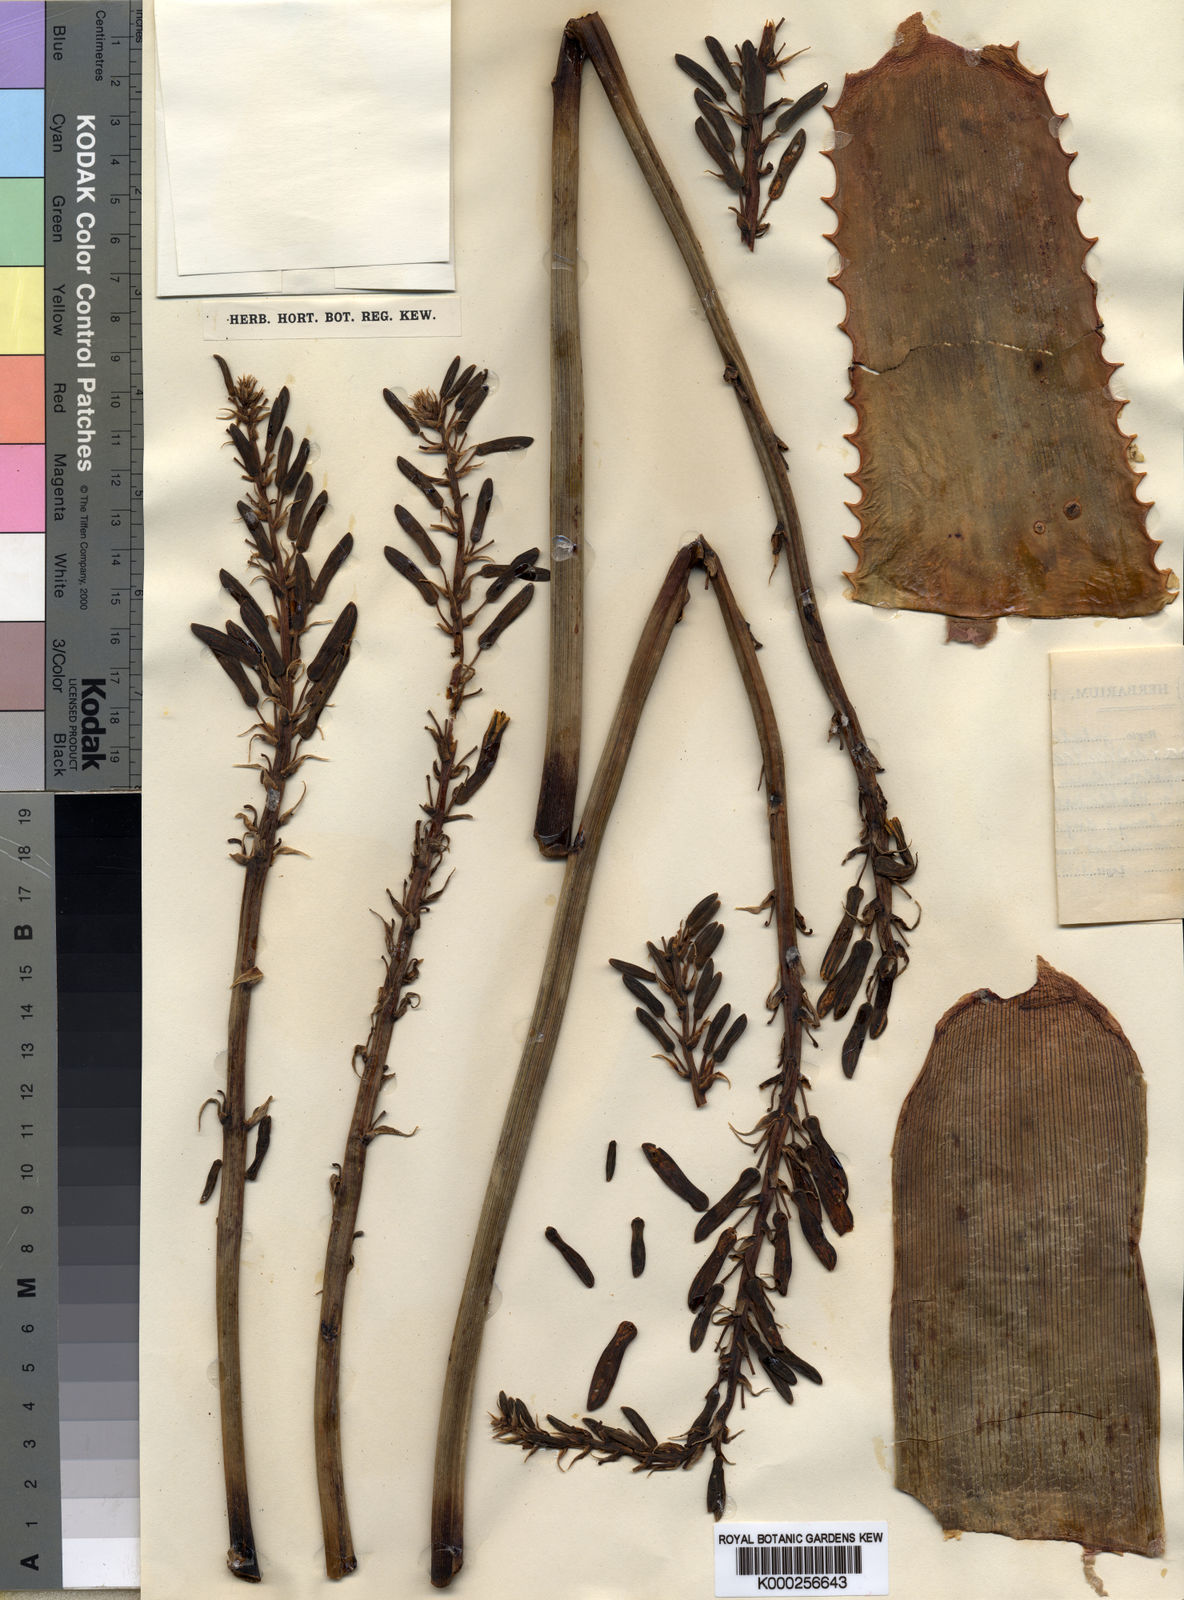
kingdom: Plantae
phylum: Tracheophyta
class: Liliopsida
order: Asparagales
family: Asphodelaceae
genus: Aloe
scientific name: Aloe parvibracteata
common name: Lowveld spotted aloe
